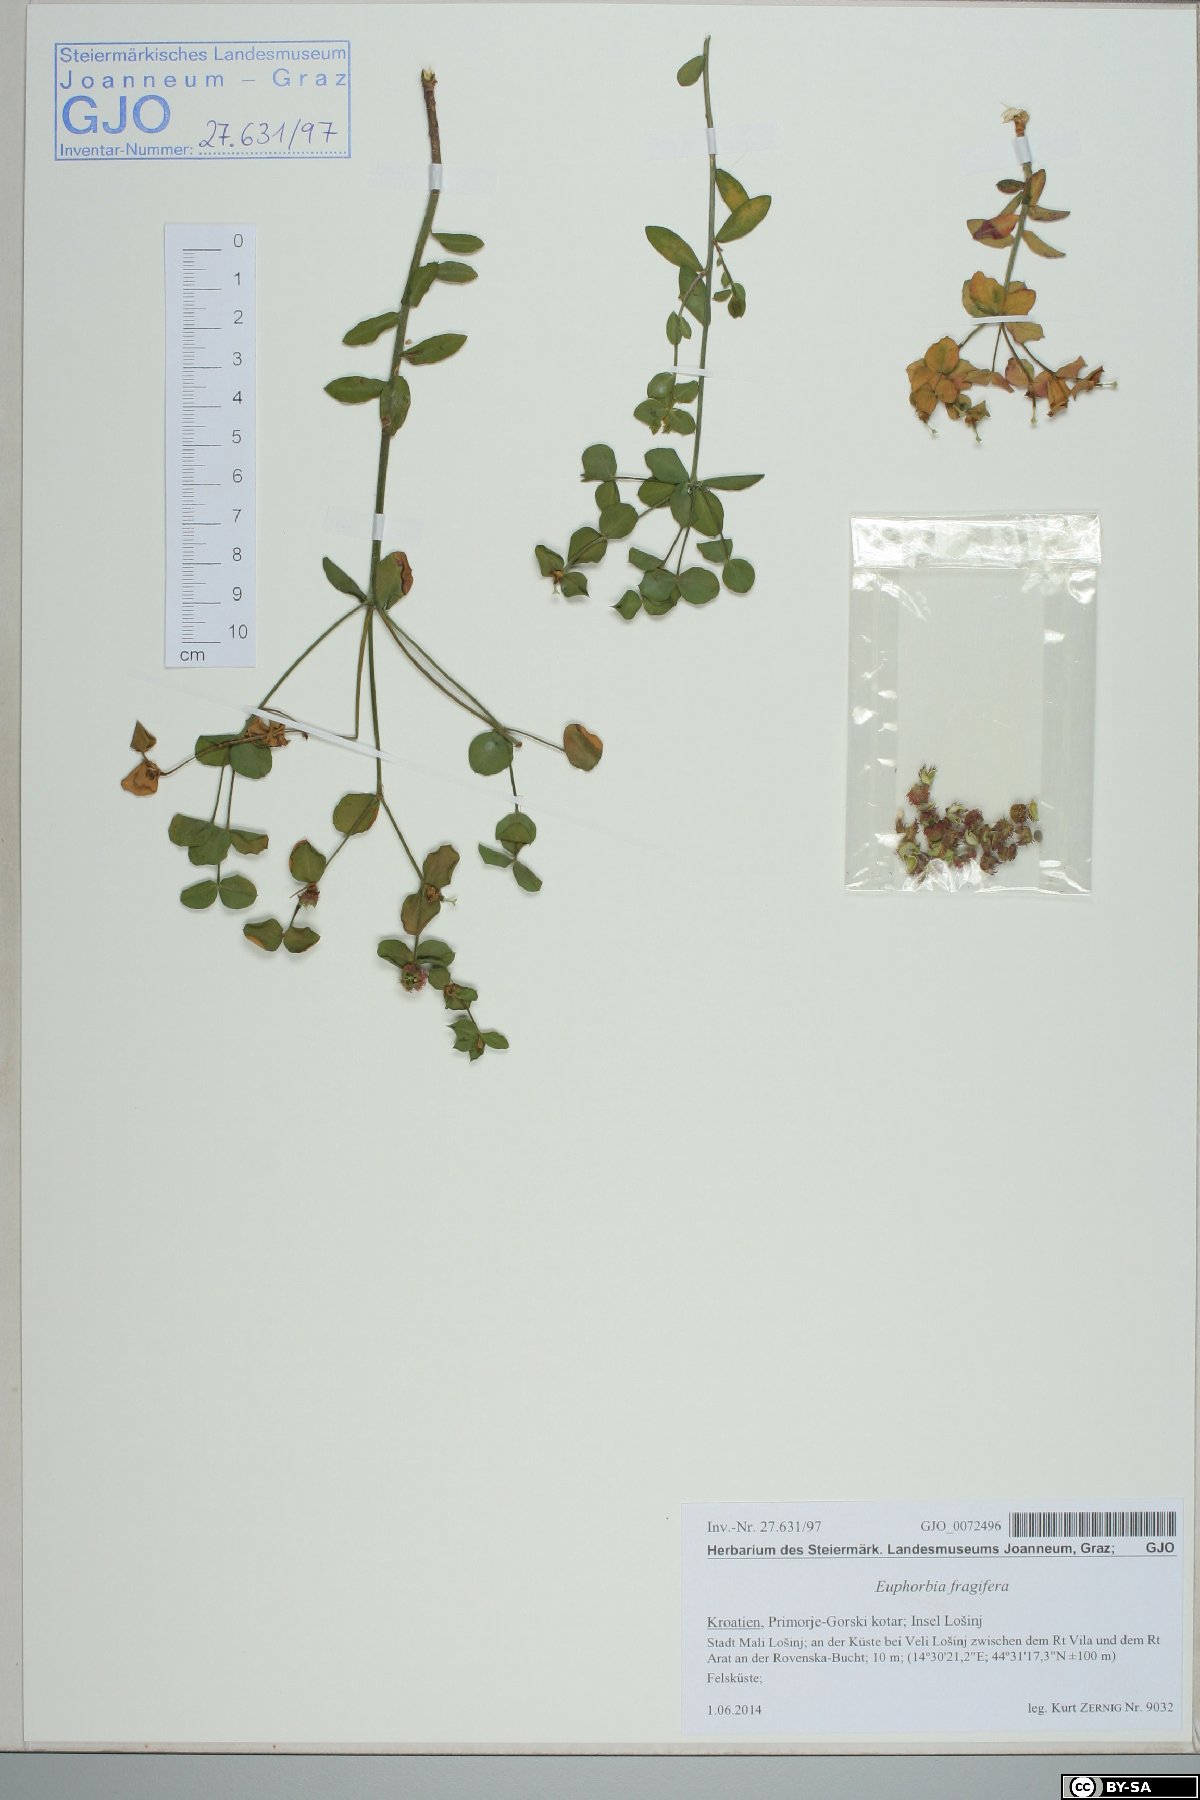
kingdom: Plantae
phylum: Tracheophyta
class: Magnoliopsida
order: Malpighiales
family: Euphorbiaceae
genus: Euphorbia
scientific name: Euphorbia fragifera
